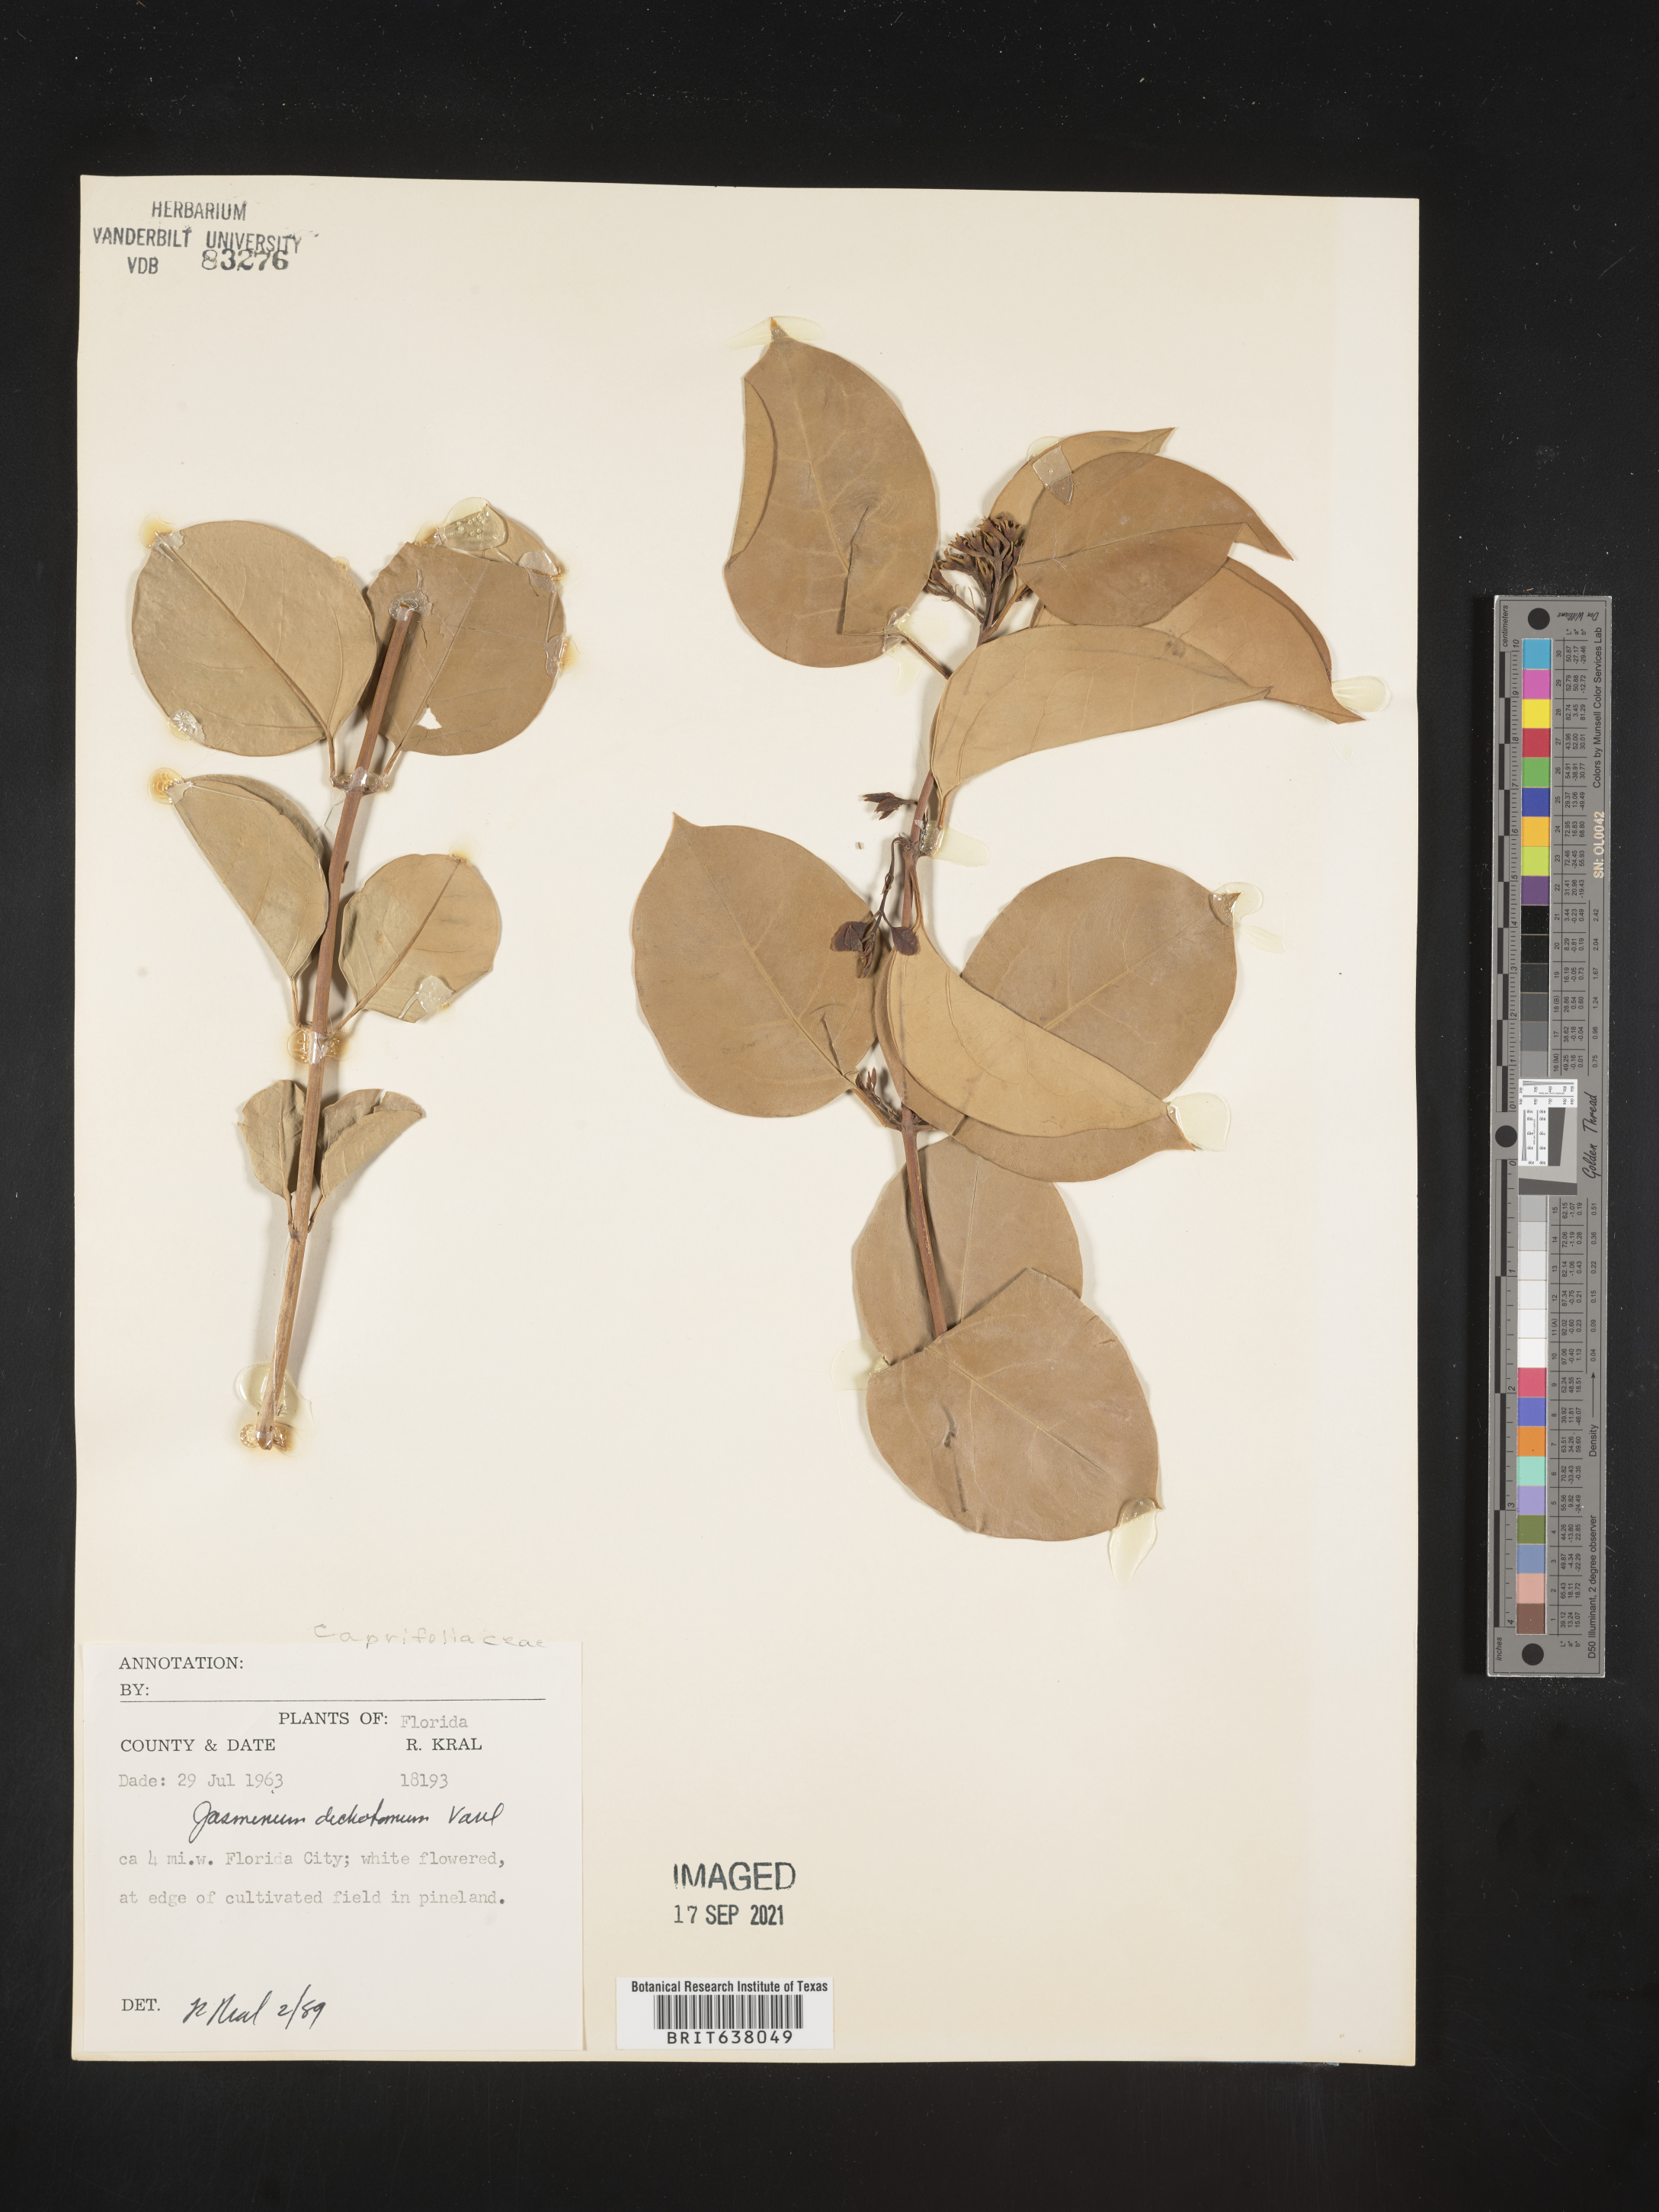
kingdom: Plantae
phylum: Tracheophyta
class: Magnoliopsida
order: Lamiales
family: Oleaceae
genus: Jasminum
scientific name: Jasminum
